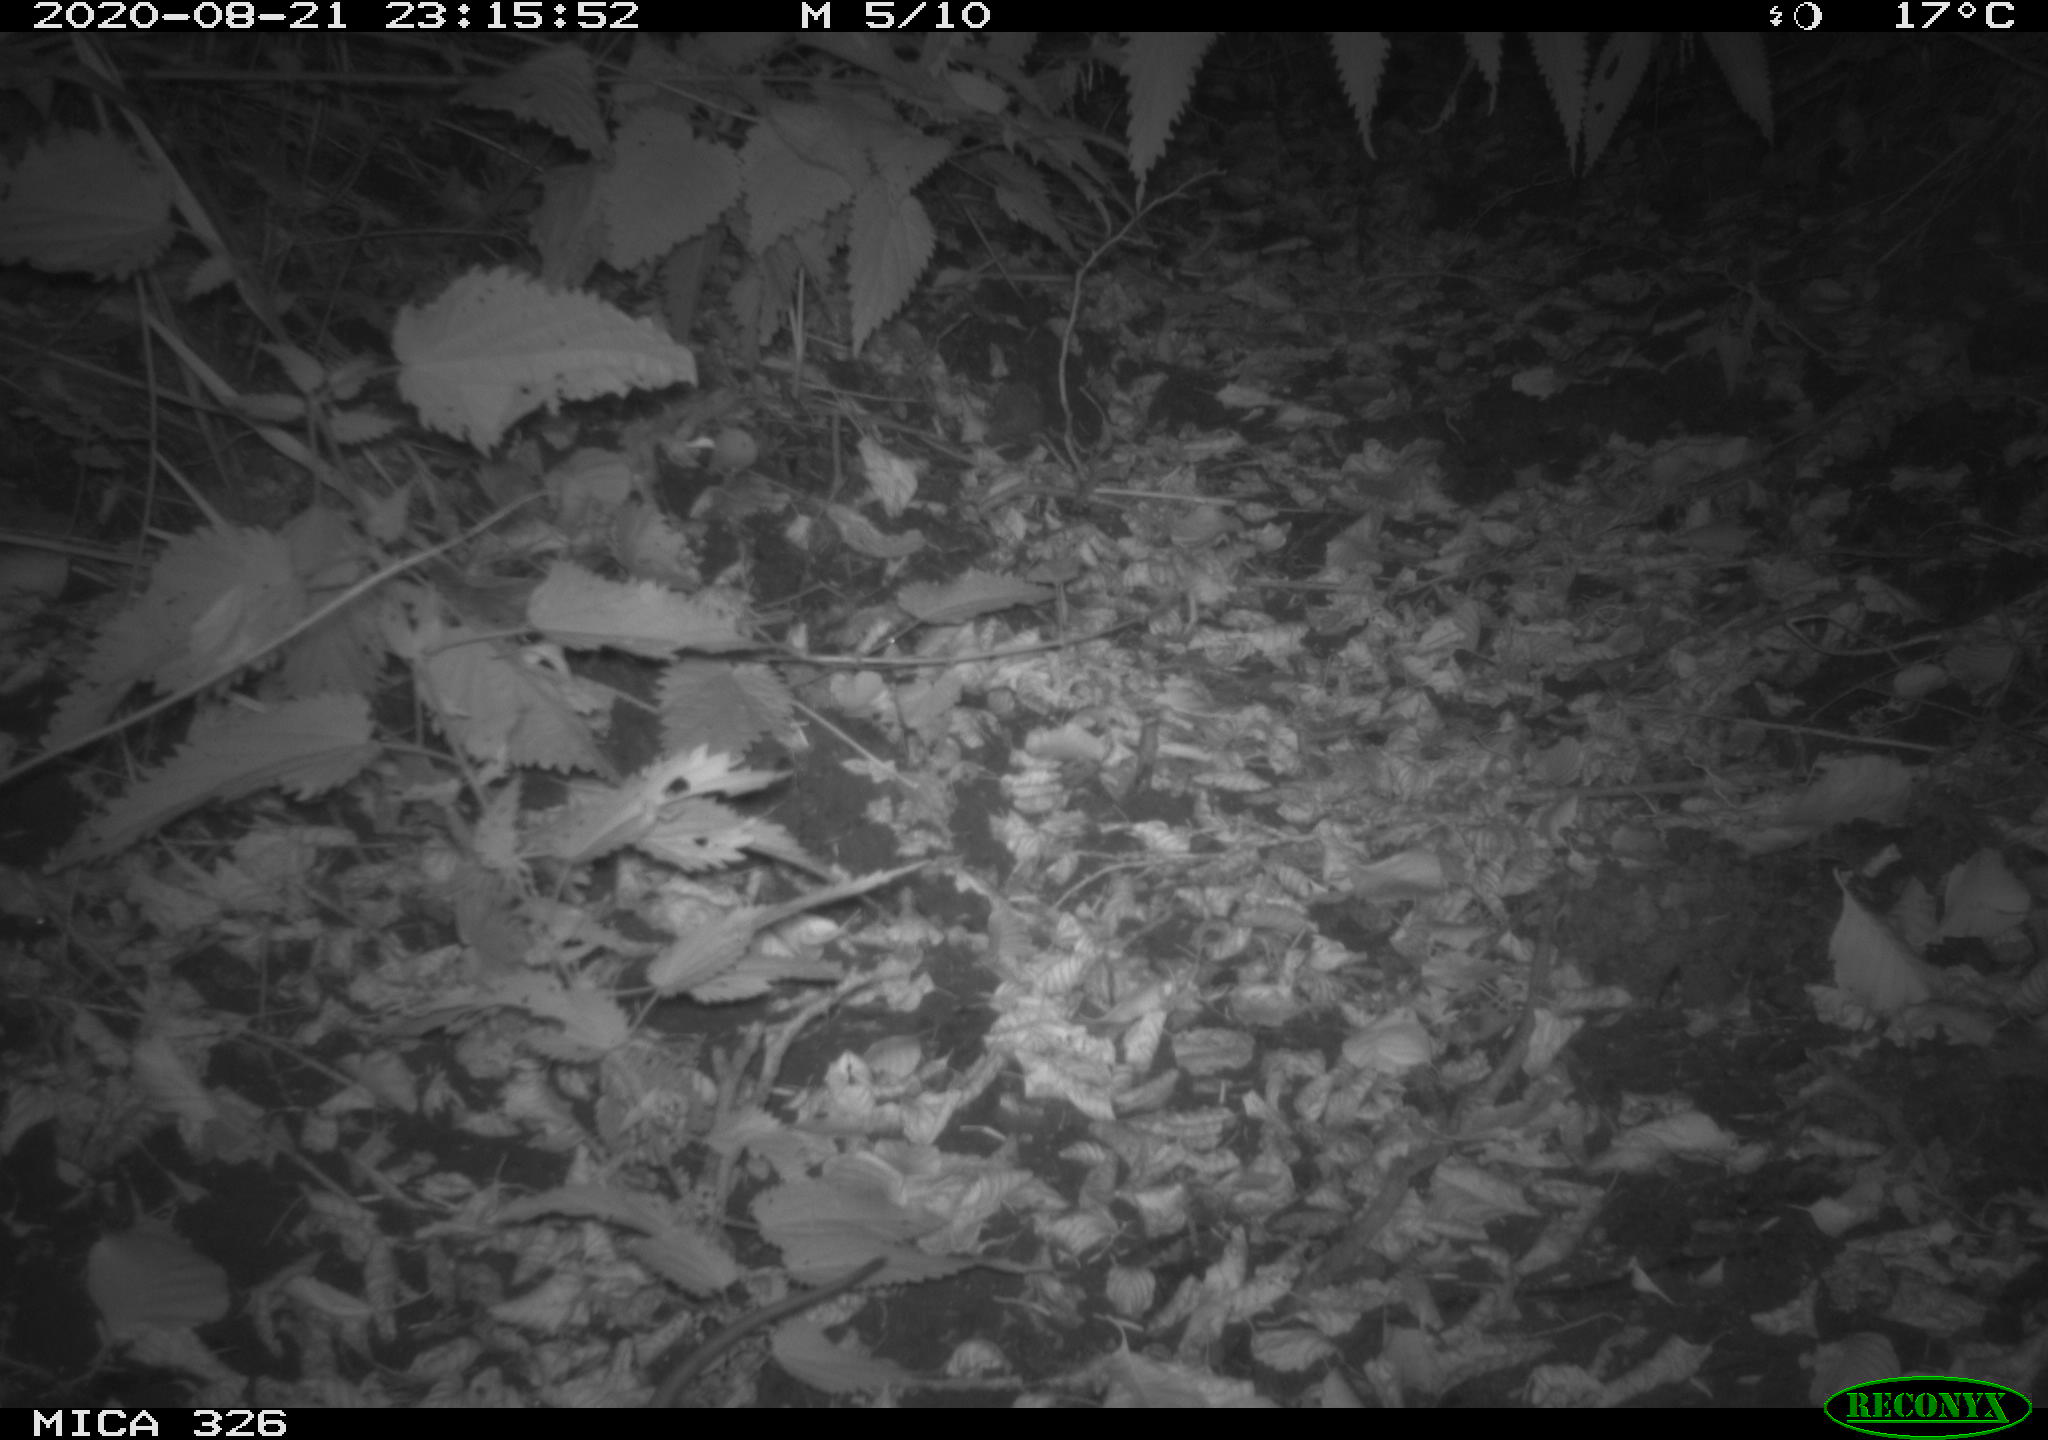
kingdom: Animalia
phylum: Chordata
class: Mammalia
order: Rodentia
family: Muridae
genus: Rattus
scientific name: Rattus norvegicus
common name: Brown rat
